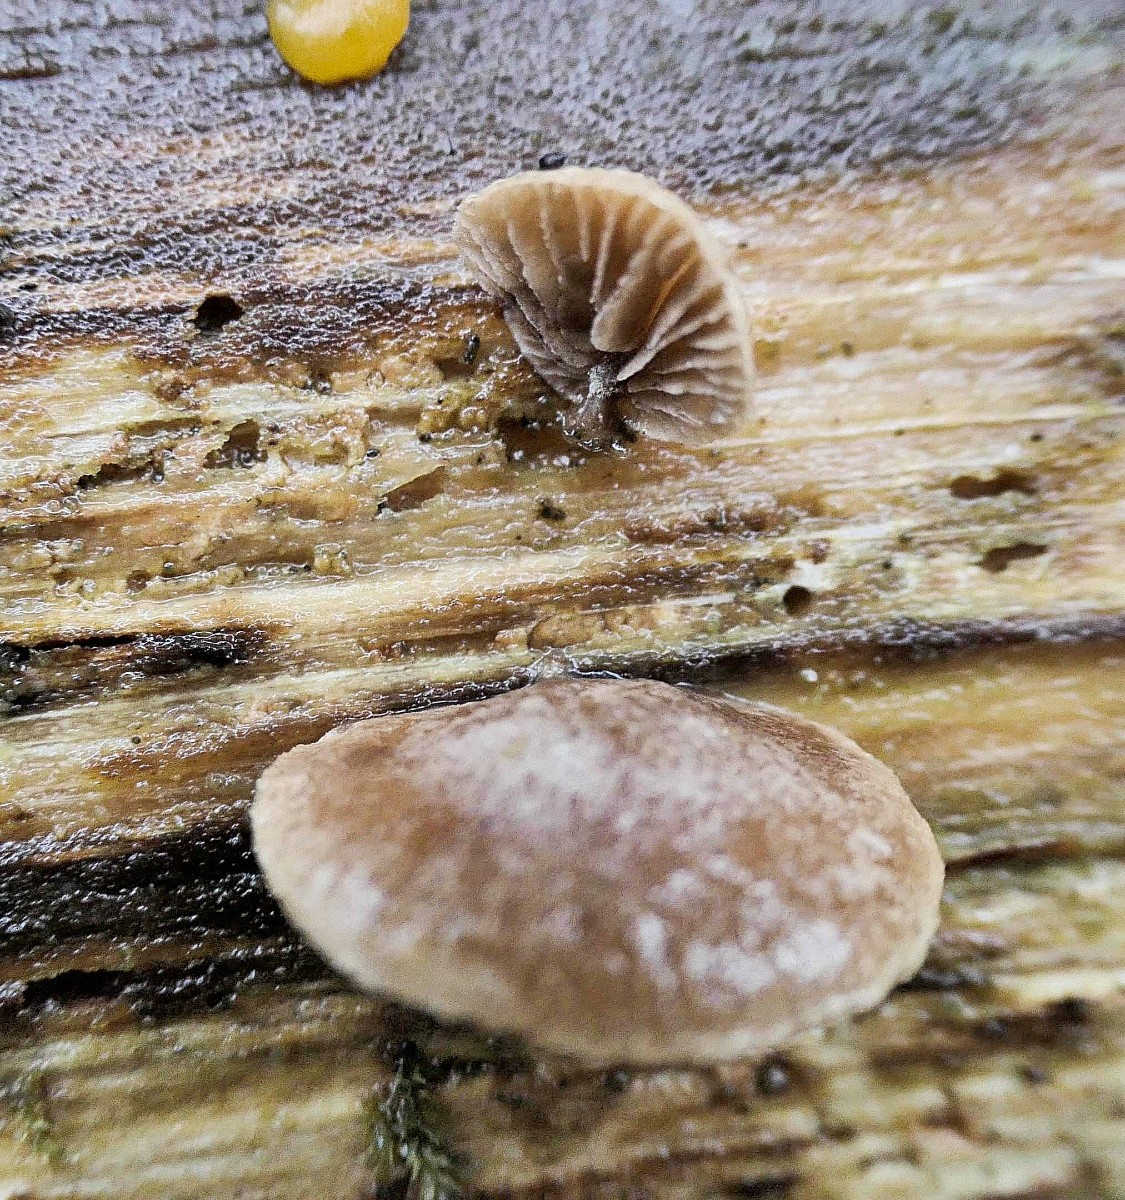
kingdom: Fungi
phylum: Basidiomycota
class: Agaricomycetes
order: Agaricales
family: Strophariaceae
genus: Deconica
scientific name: Deconica horizontalis
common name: ved-stråhat
